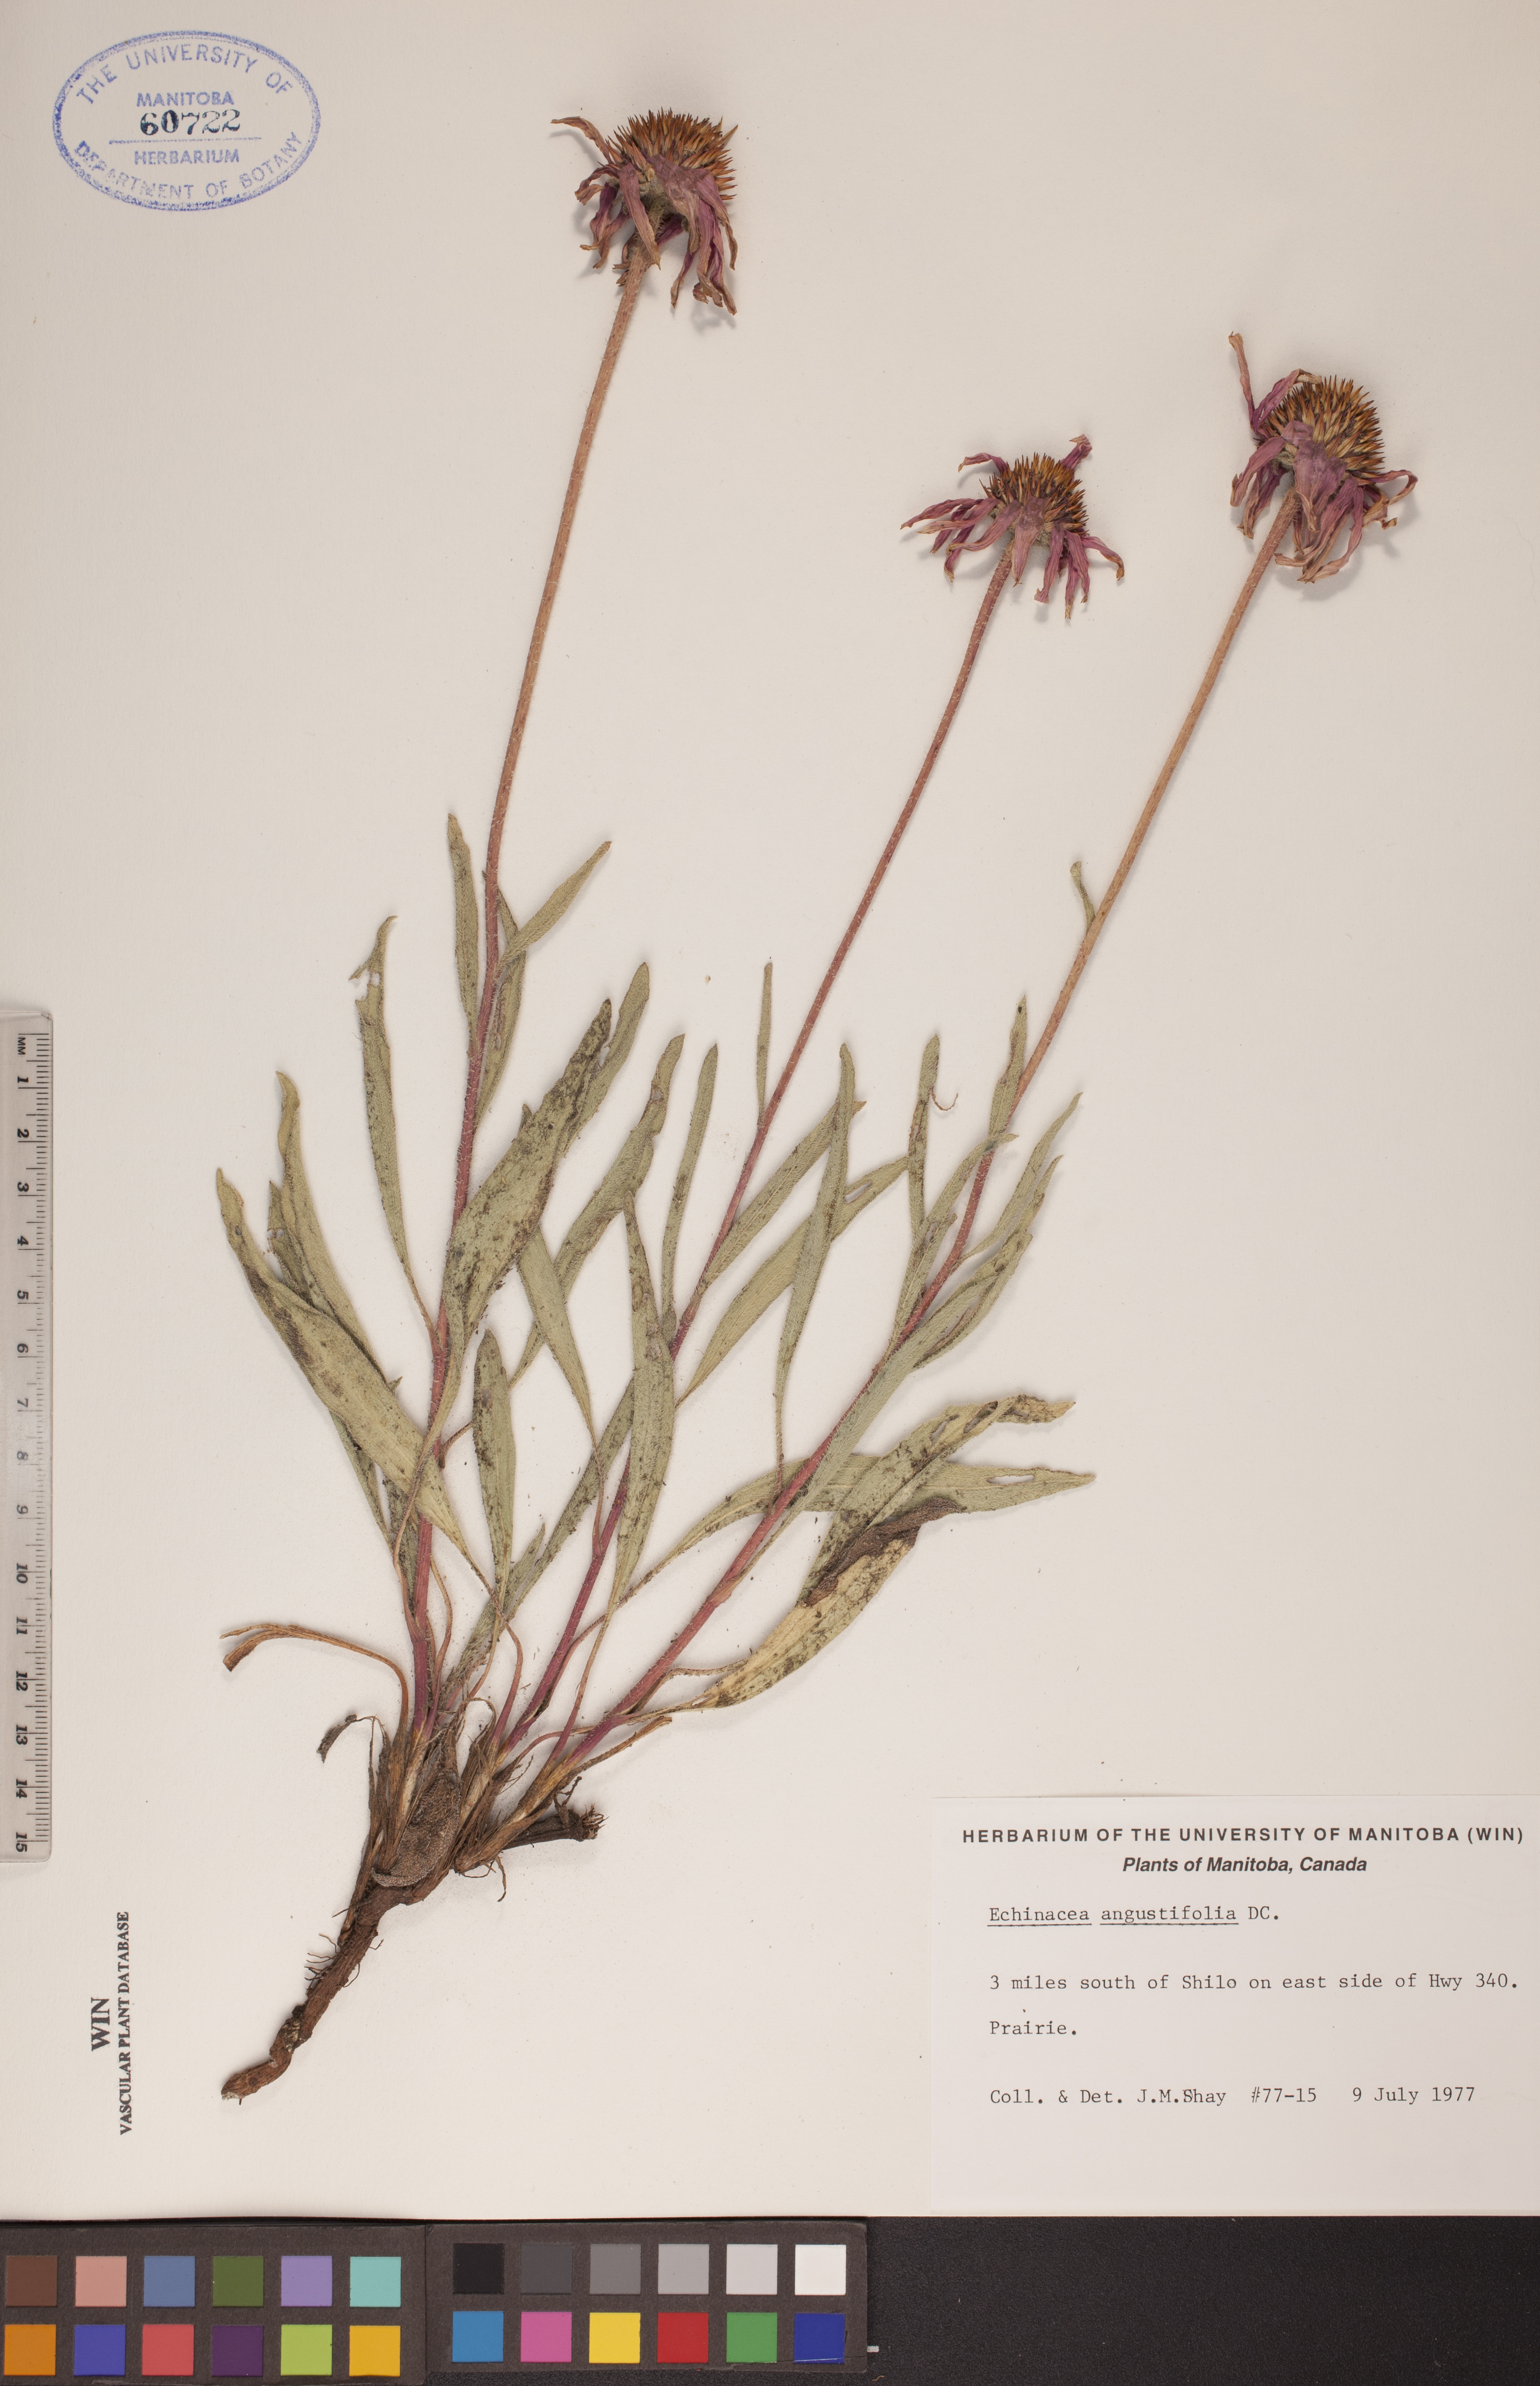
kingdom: Plantae
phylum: Tracheophyta
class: Magnoliopsida
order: Asterales
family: Asteraceae
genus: Echinacea
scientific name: Echinacea angustifolia
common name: Black-sampson echinacea
